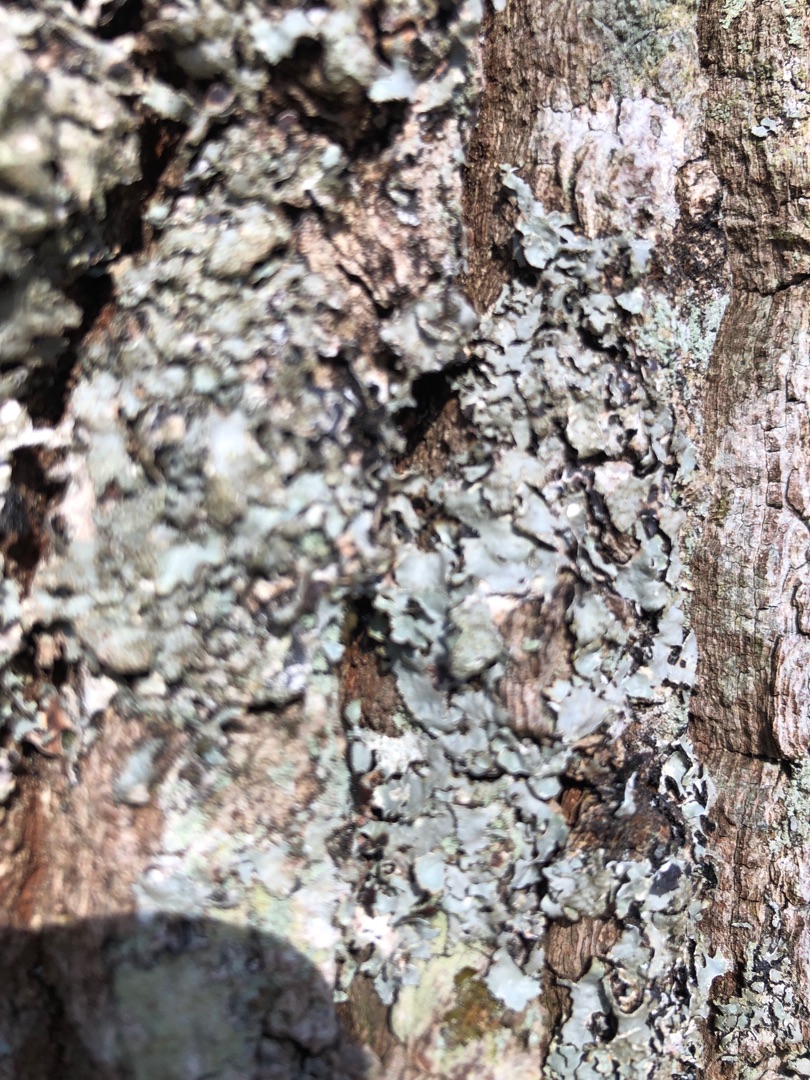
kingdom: Fungi
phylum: Ascomycota
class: Lecanoromycetes
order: Lecanorales
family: Parmeliaceae
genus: Parmelia
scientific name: Parmelia sulcata
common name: Rynket skållav
